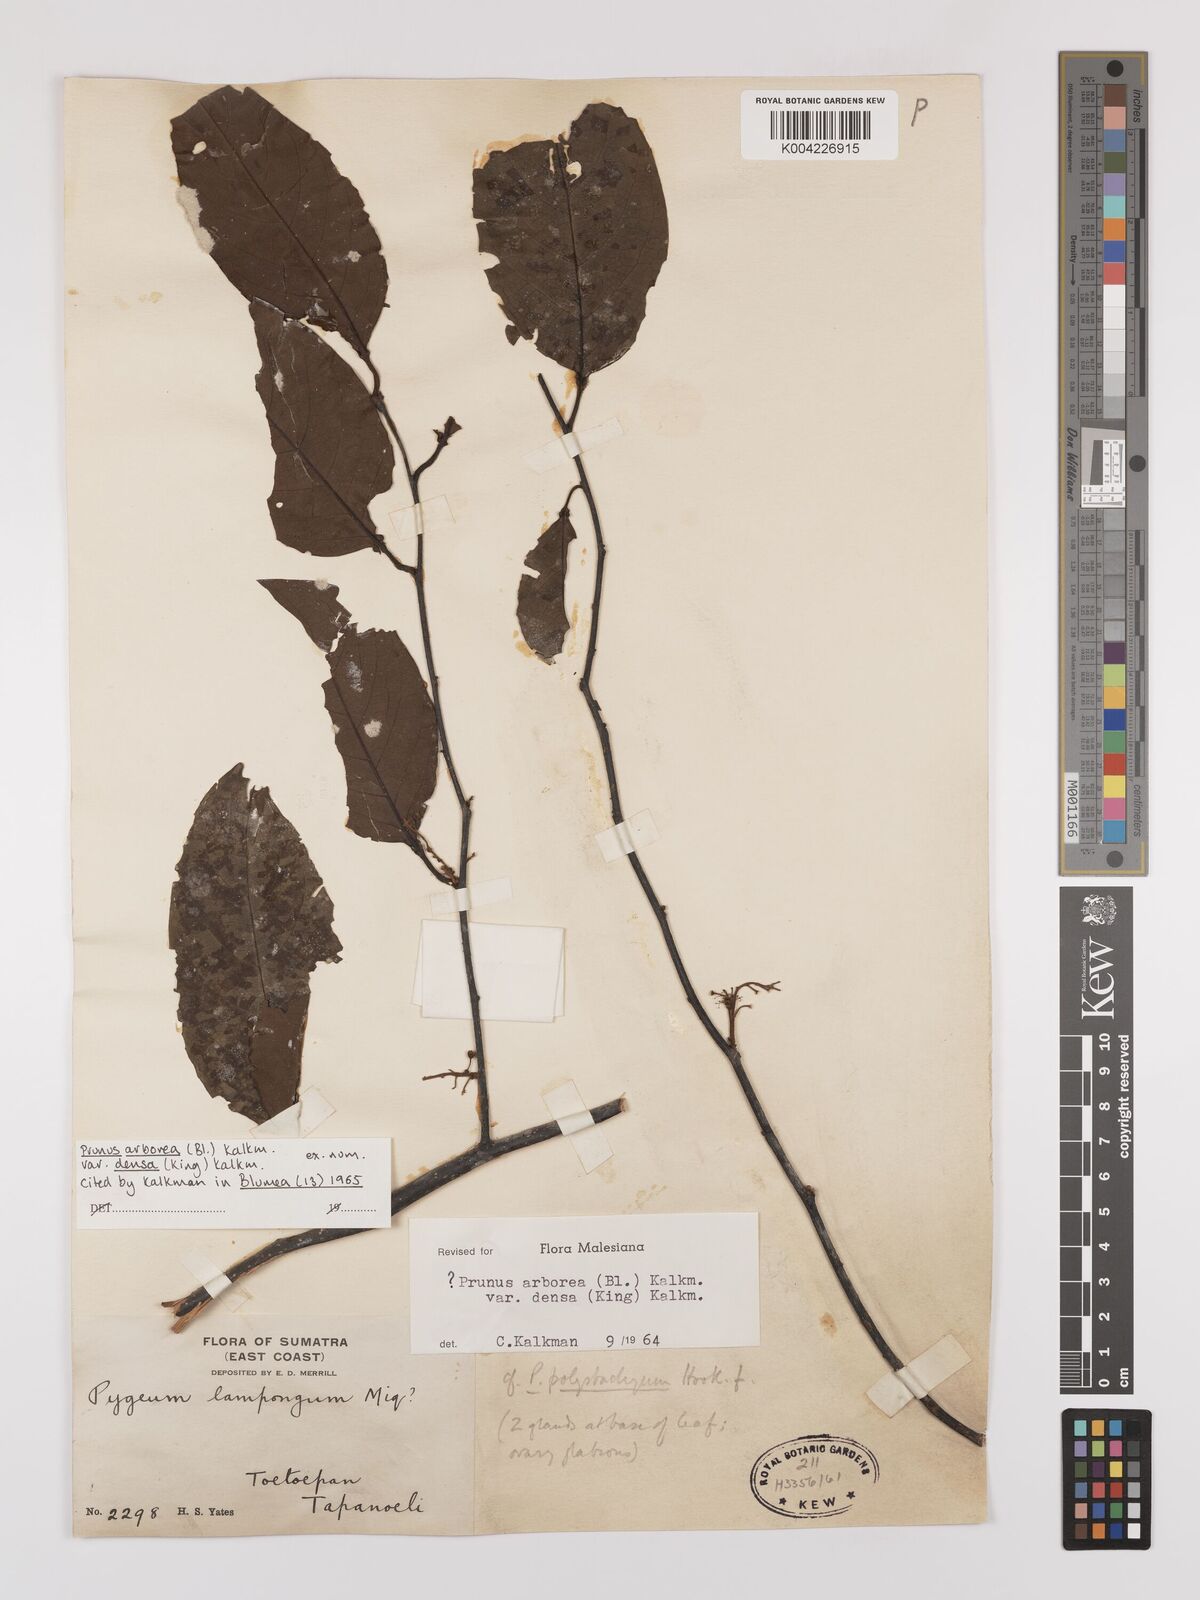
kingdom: Plantae
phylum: Tracheophyta
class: Magnoliopsida
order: Rosales
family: Rosaceae
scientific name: Rosaceae
